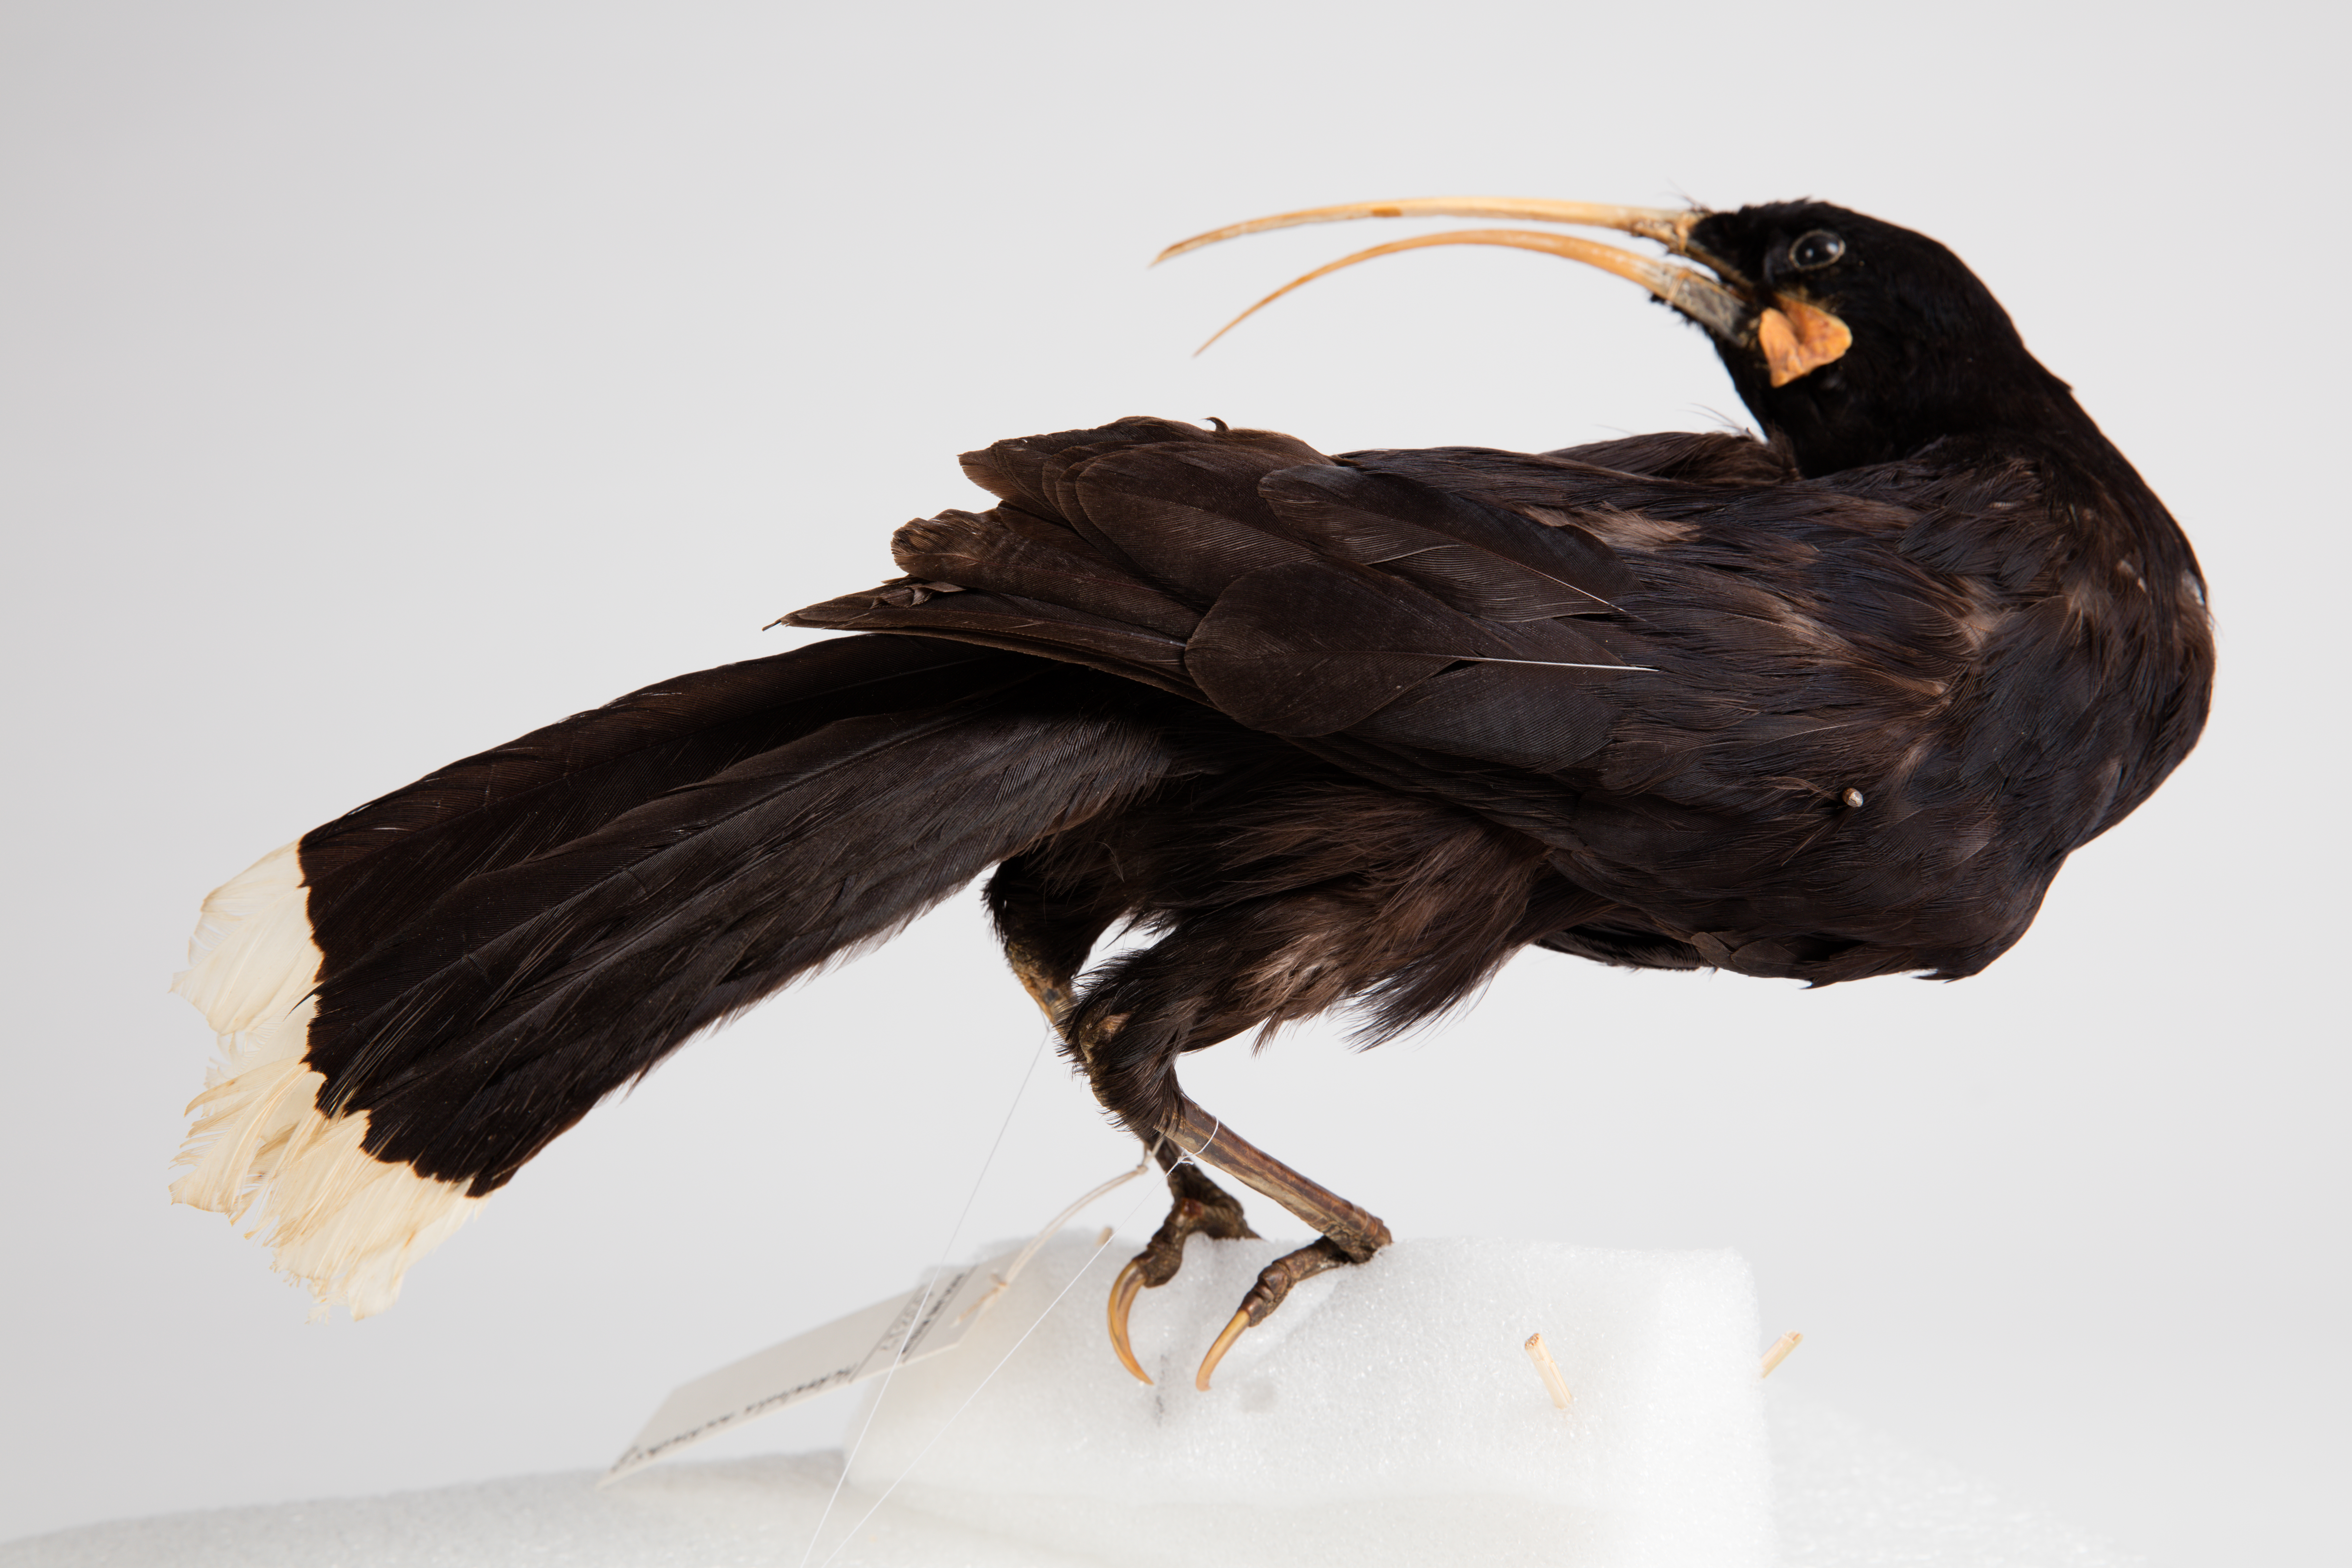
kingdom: Animalia
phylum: Chordata
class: Aves
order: Passeriformes
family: Callaeatidae
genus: Heteralocha
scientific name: Heteralocha acutirostris
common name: Huia
